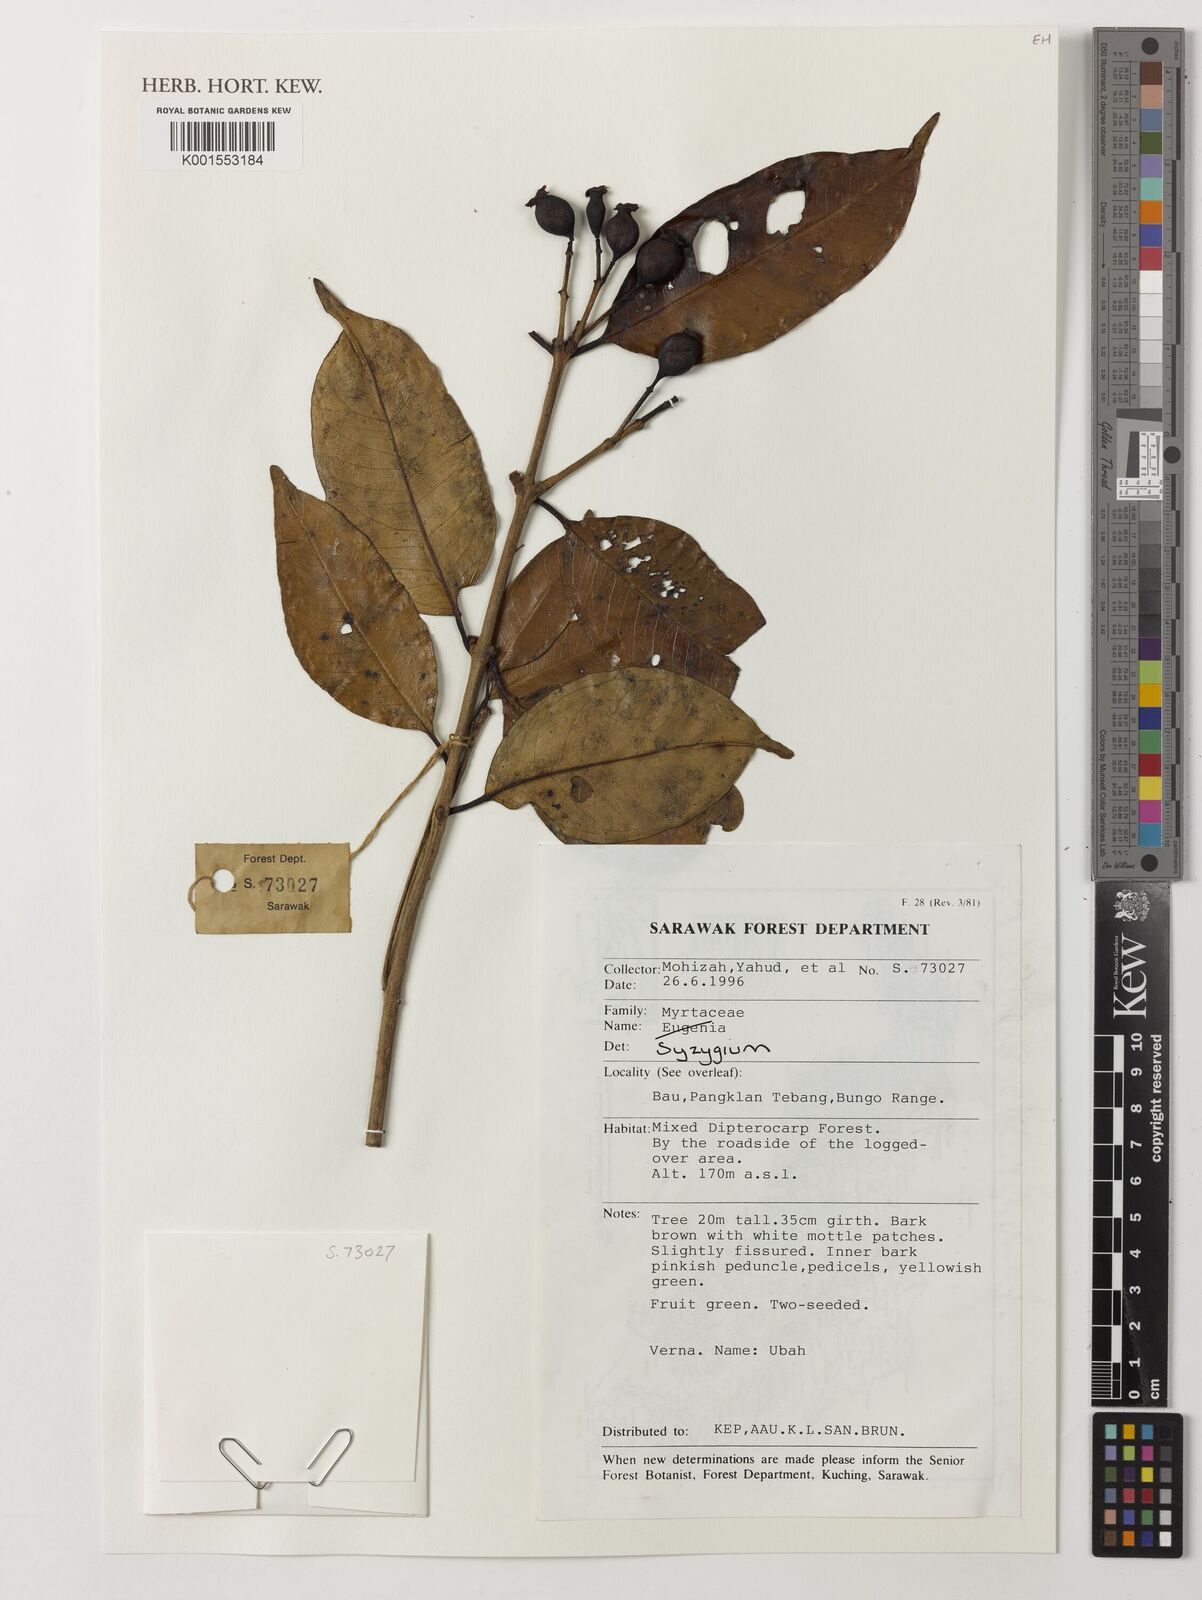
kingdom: Plantae
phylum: Tracheophyta
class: Magnoliopsida
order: Myrtales
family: Myrtaceae
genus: Syzygium
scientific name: Syzygium
